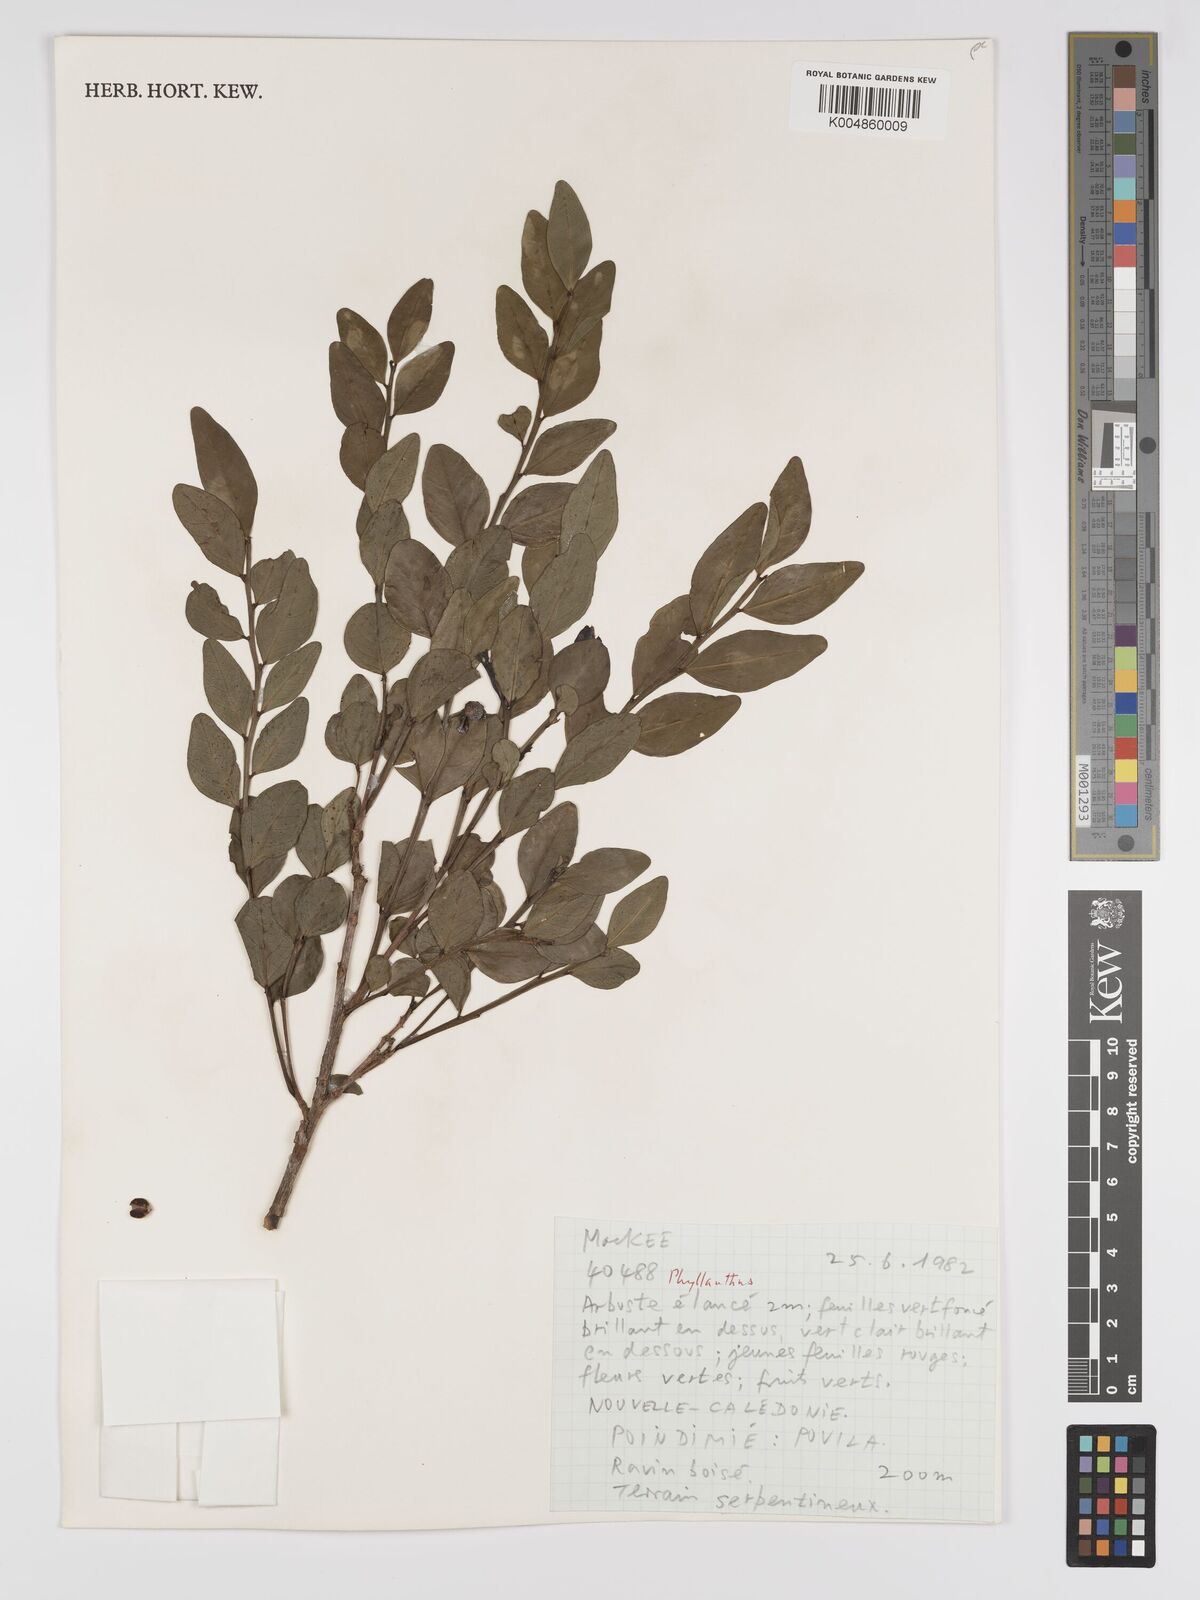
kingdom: Plantae
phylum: Tracheophyta
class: Magnoliopsida
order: Malpighiales
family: Phyllanthaceae
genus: Phyllanthus
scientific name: Phyllanthus
